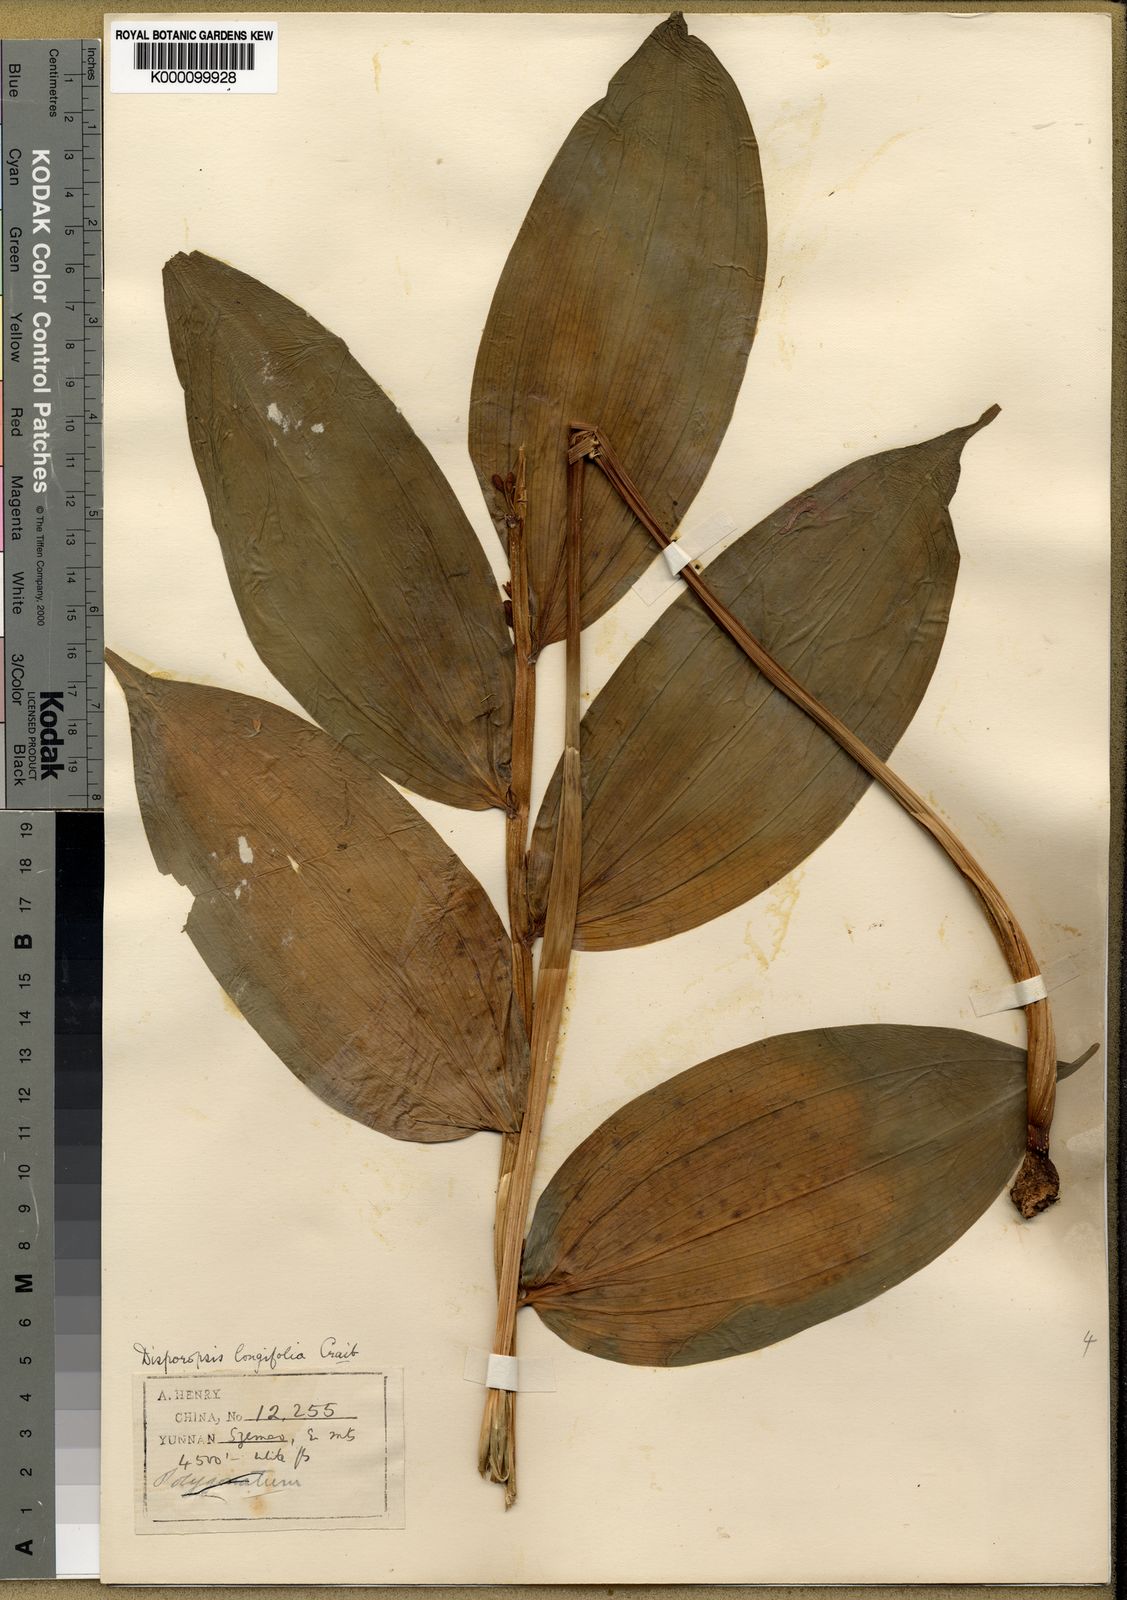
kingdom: Plantae
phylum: Tracheophyta
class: Liliopsida
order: Asparagales
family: Asparagaceae
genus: Disporopsis
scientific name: Disporopsis longifolia
